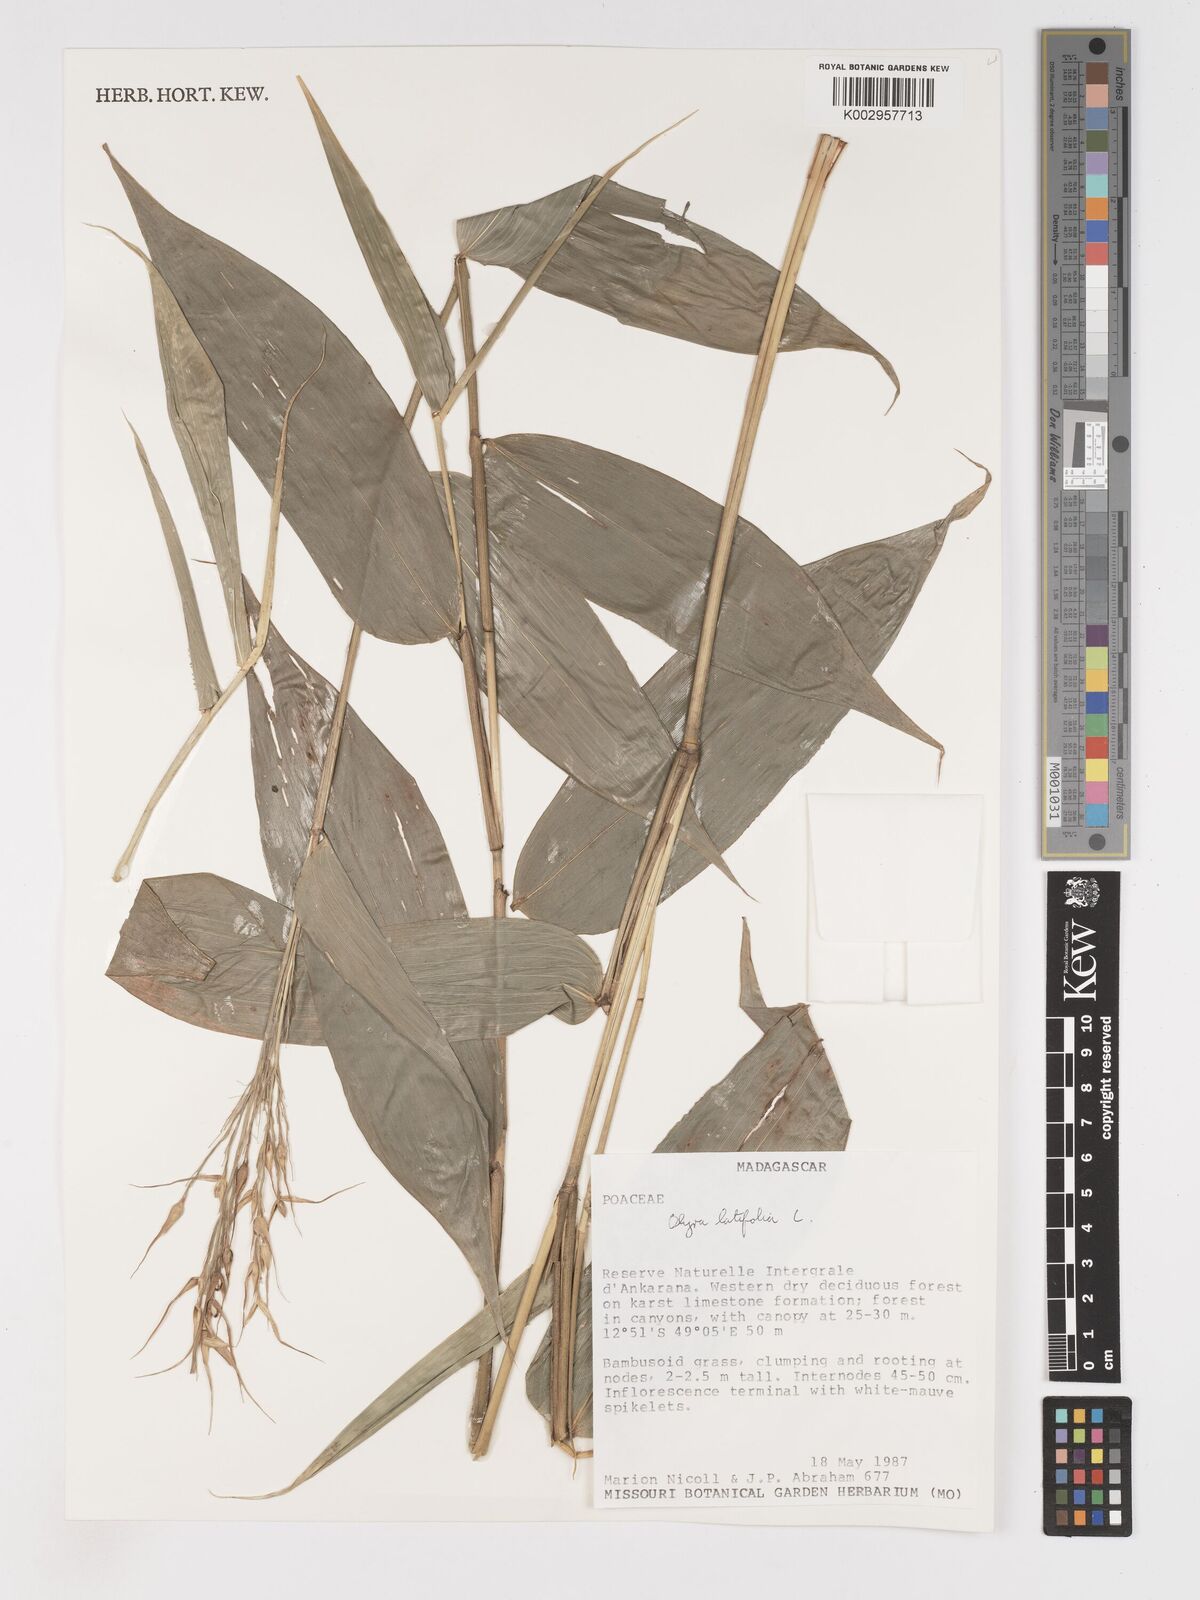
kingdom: Plantae
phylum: Tracheophyta
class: Liliopsida
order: Poales
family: Poaceae
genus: Olyra
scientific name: Olyra latifolia
